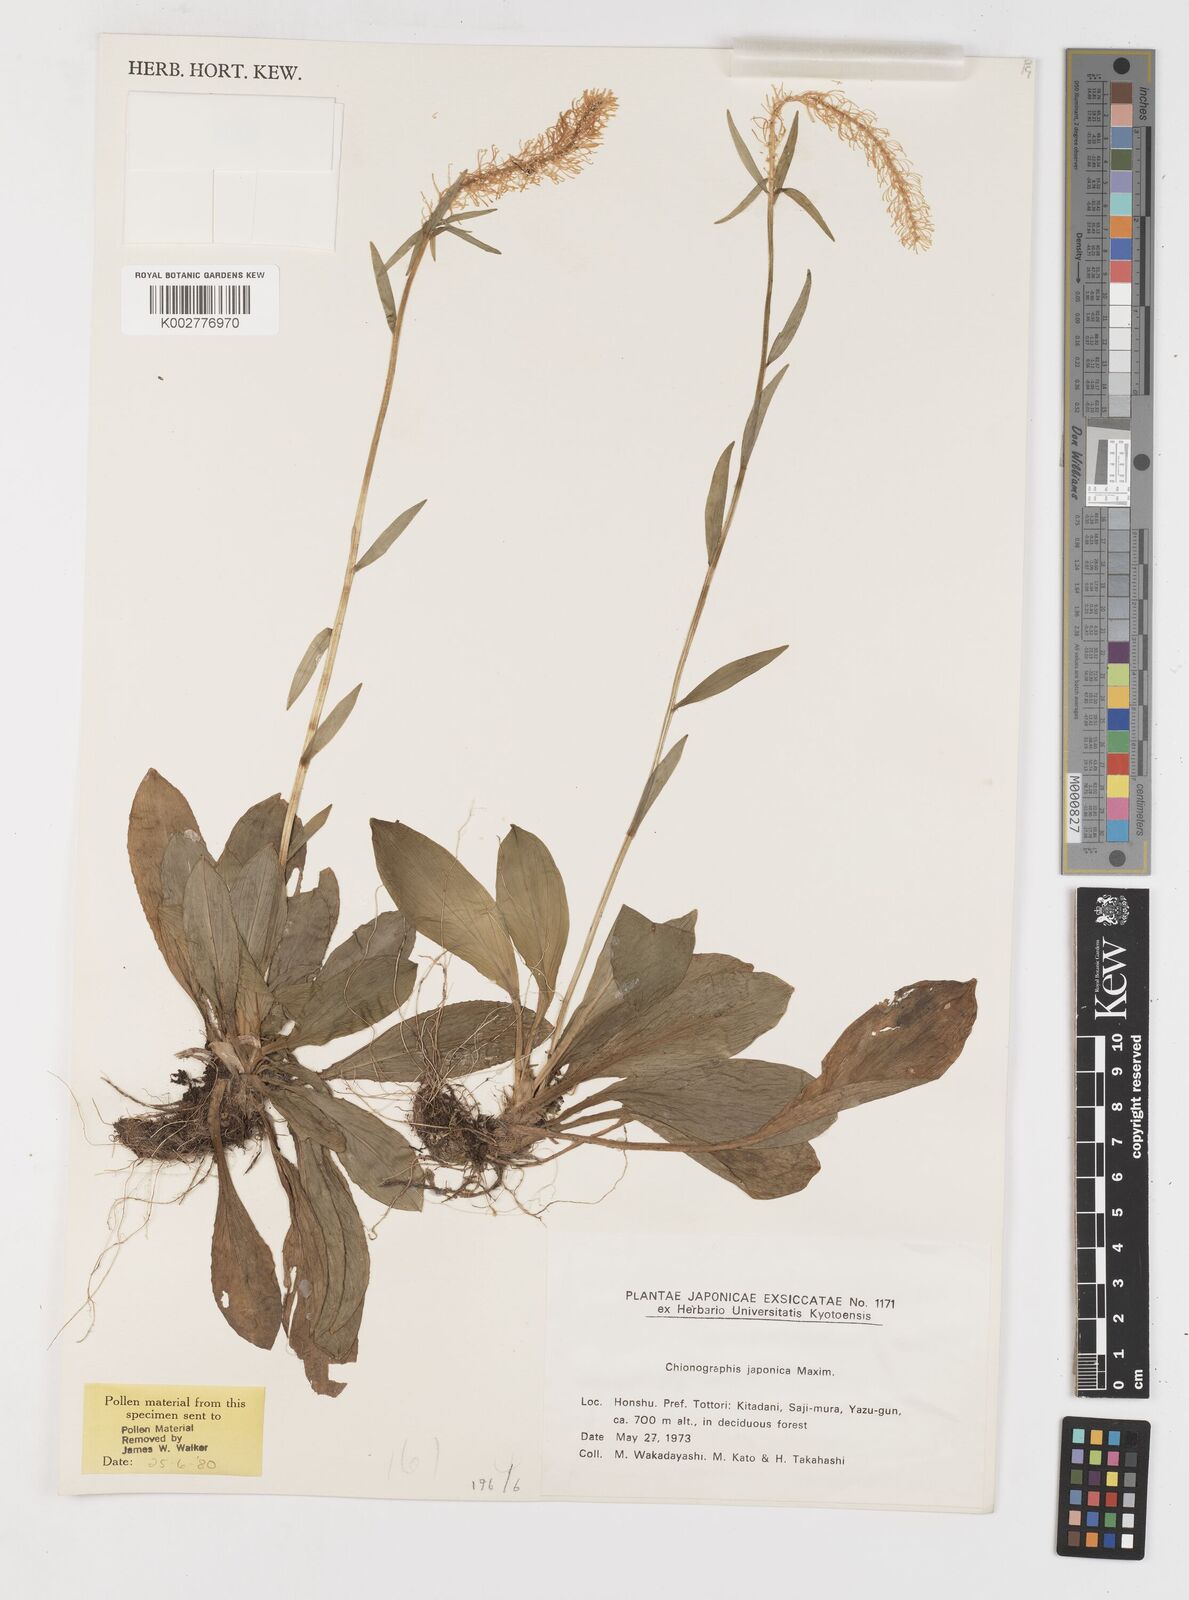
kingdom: Plantae
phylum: Tracheophyta
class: Liliopsida
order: Liliales
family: Melanthiaceae
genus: Chamaelirium
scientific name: Chamaelirium japonicum
